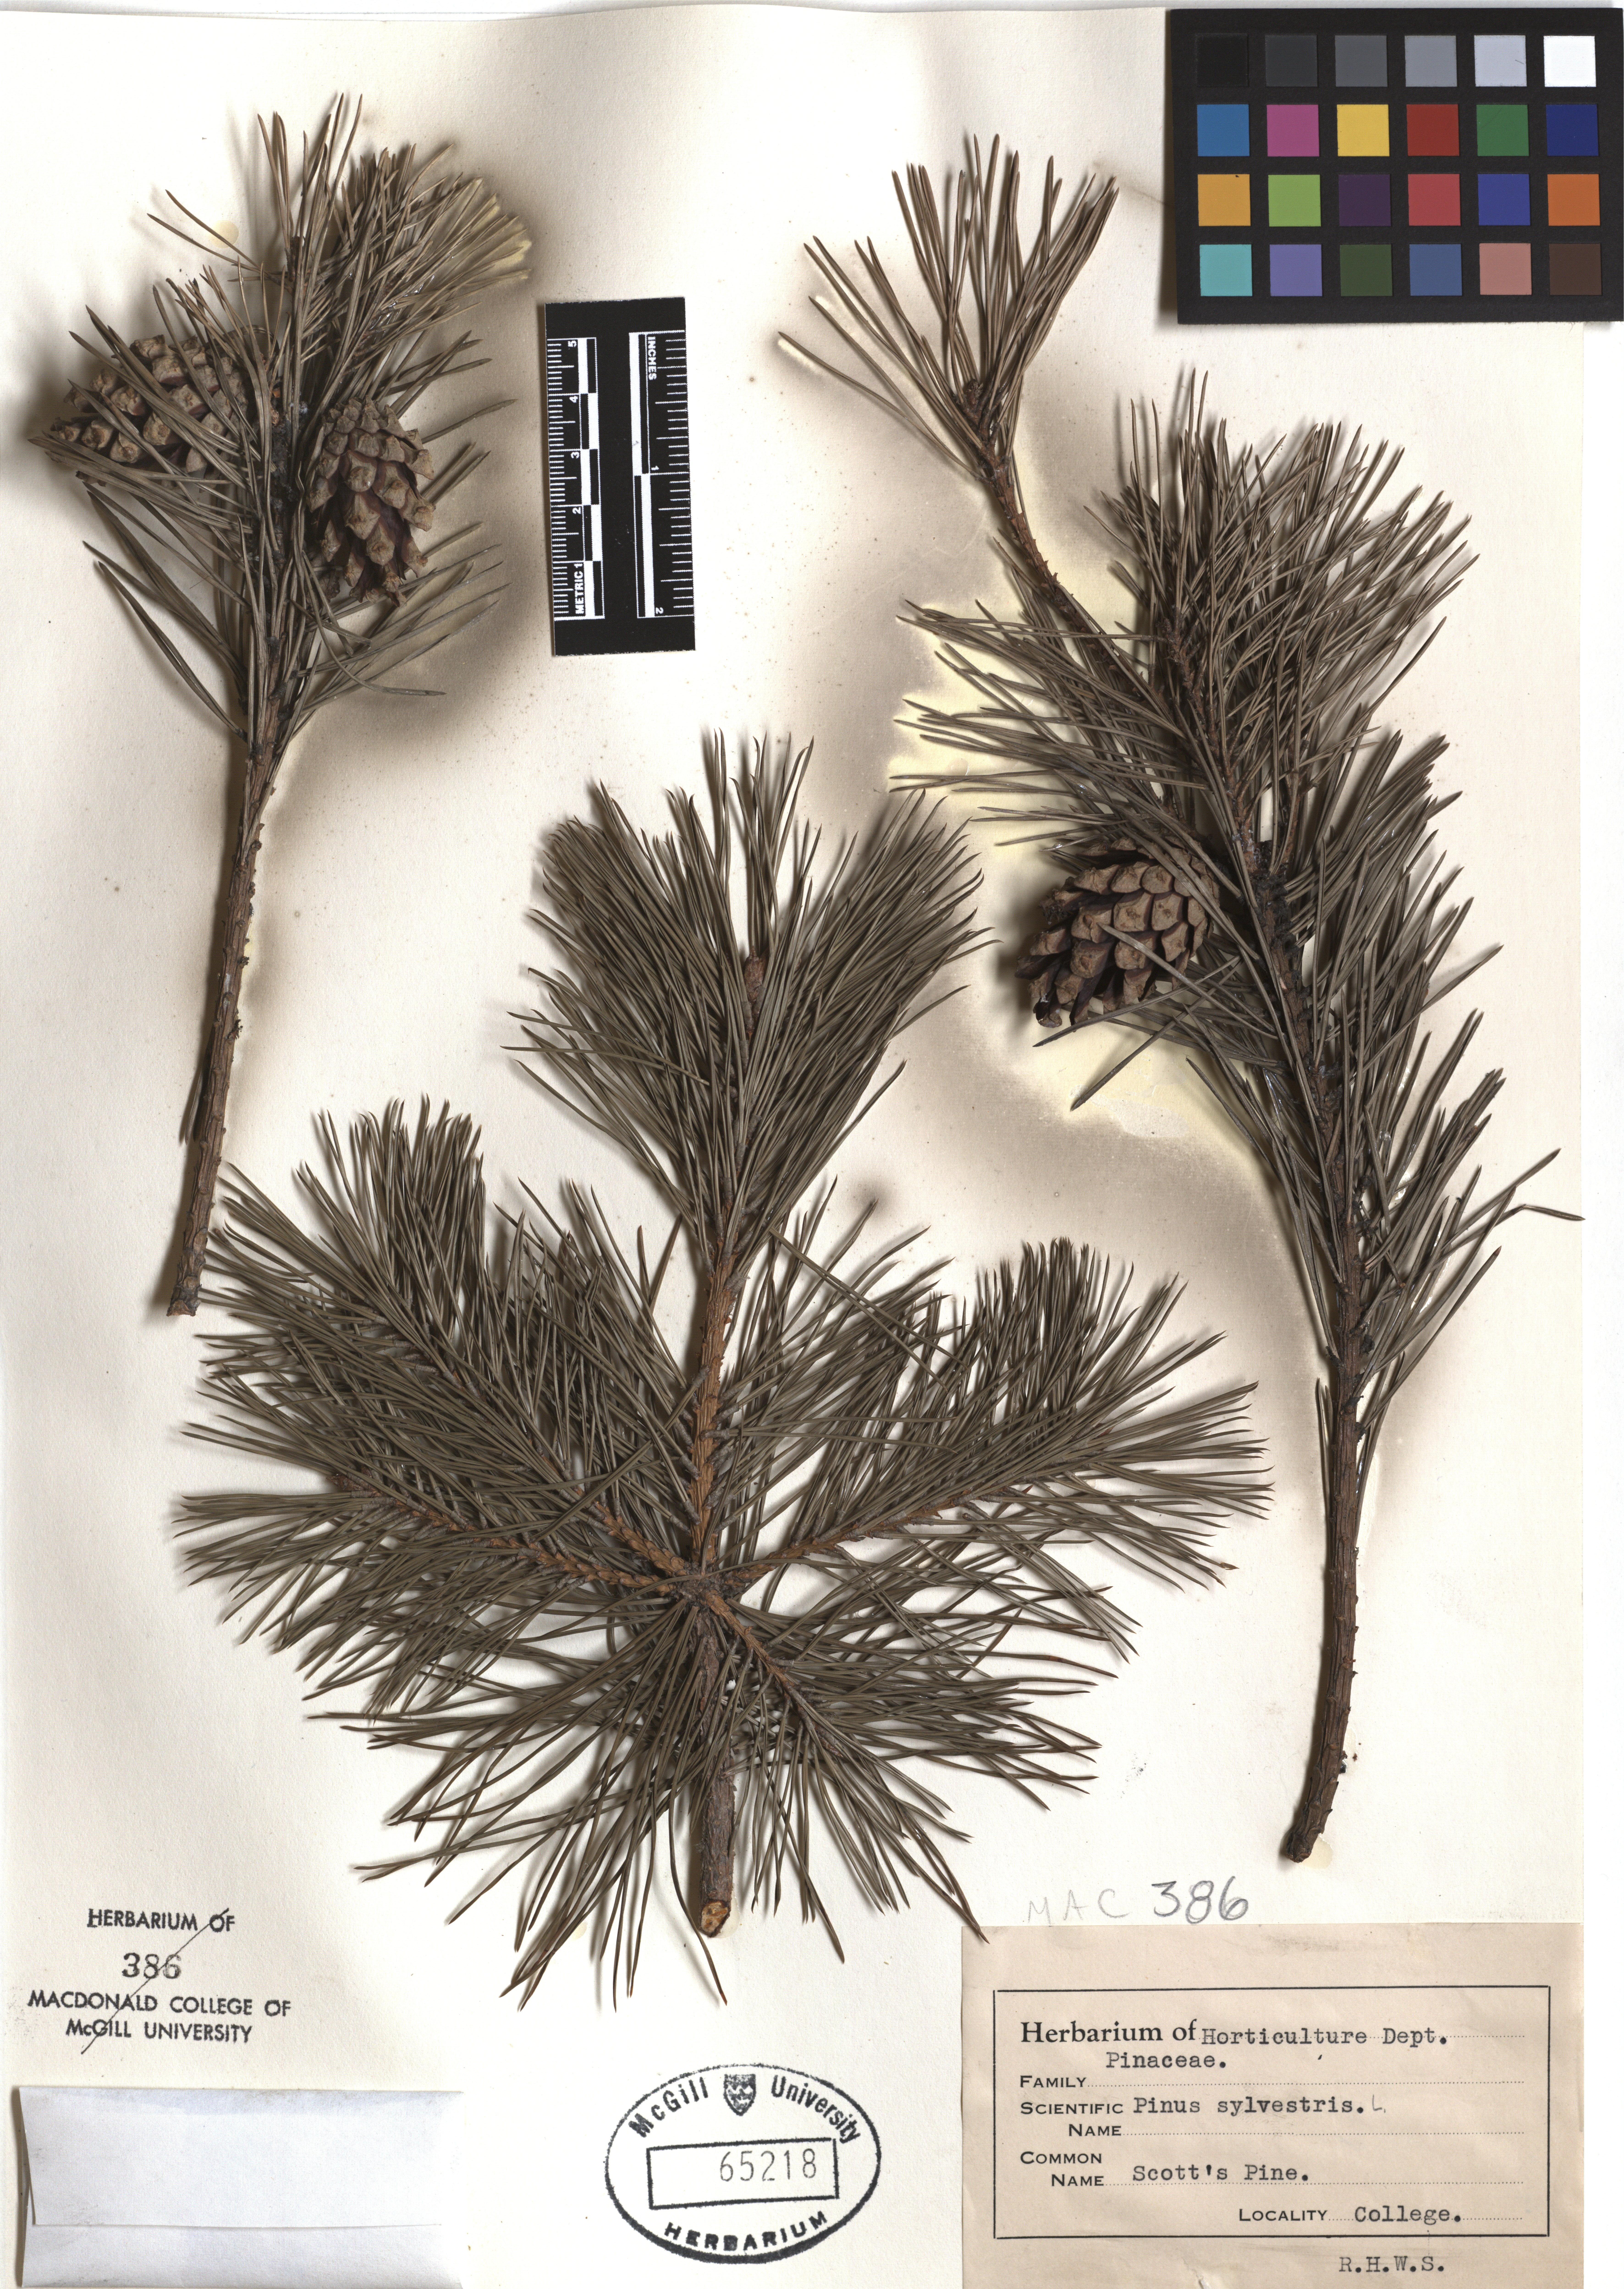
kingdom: Plantae
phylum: Tracheophyta
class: Pinopsida
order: Pinales
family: Pinaceae
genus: Pinus
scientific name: Pinus sylvestris
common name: Scots pine
